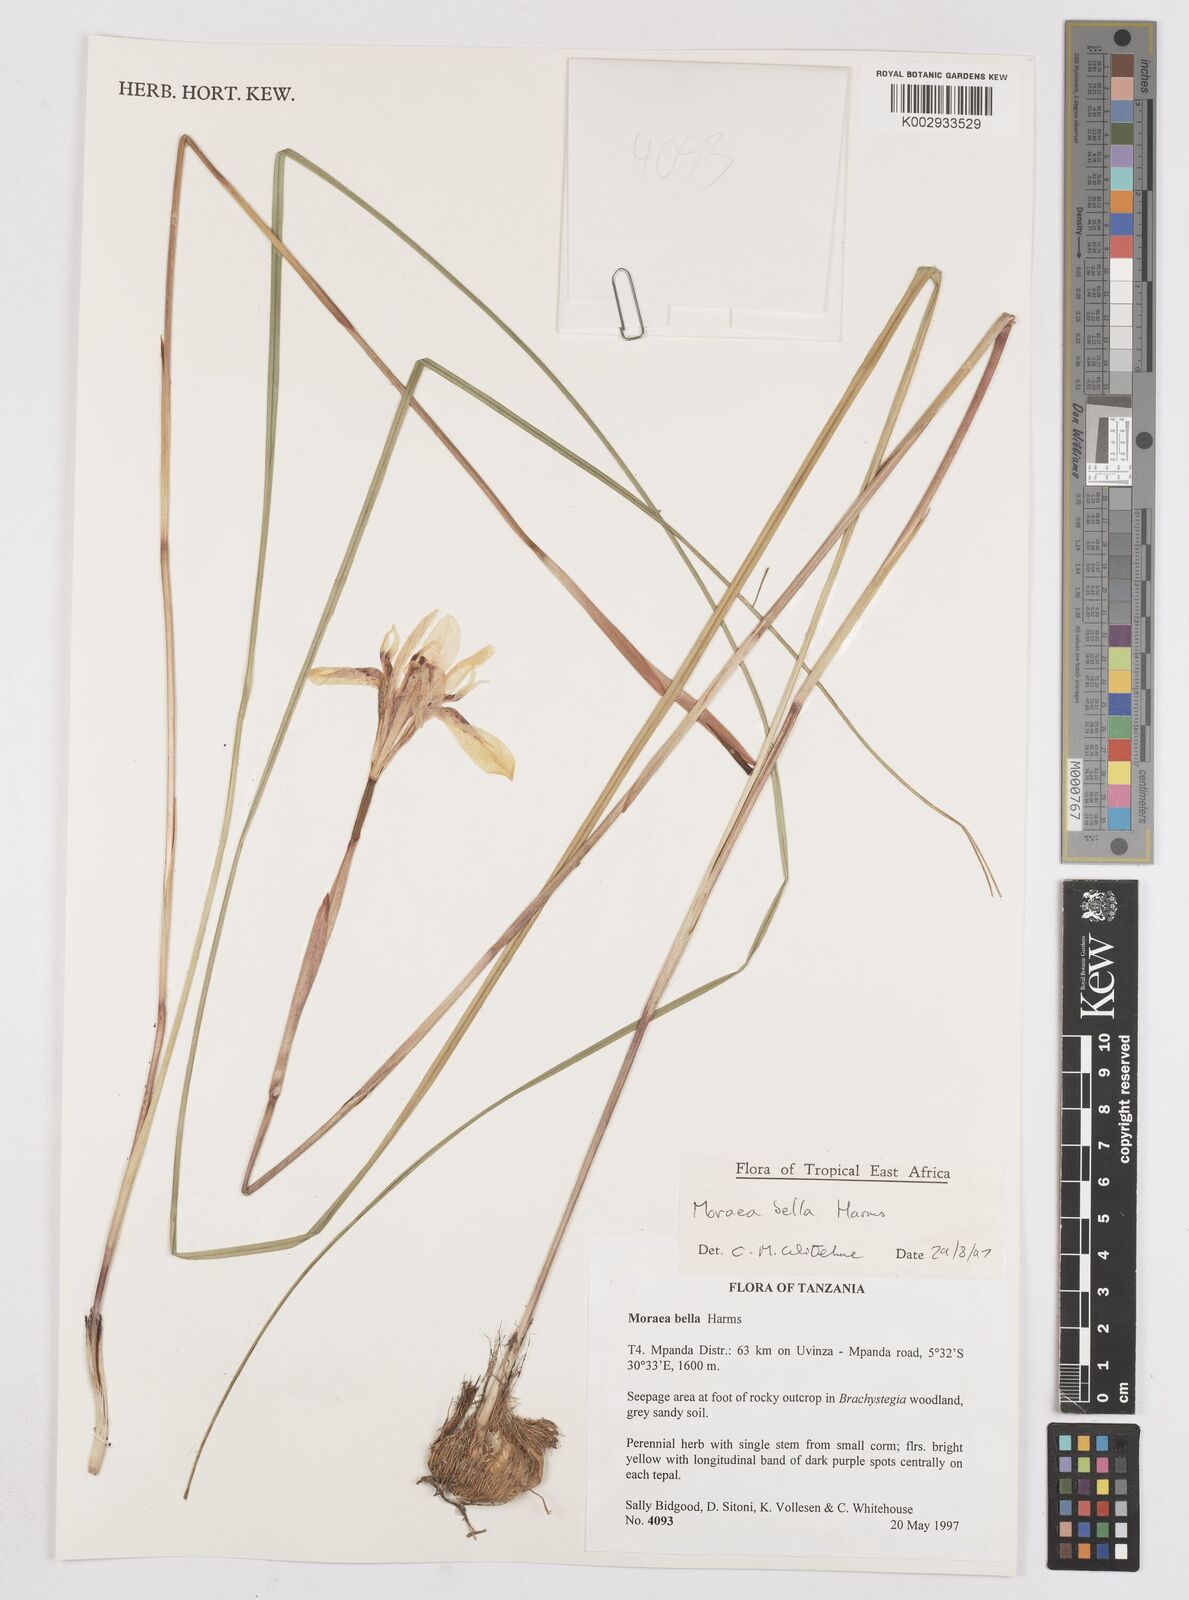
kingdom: Plantae
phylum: Tracheophyta
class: Liliopsida
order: Asparagales
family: Iridaceae
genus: Moraea
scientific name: Moraea bella
